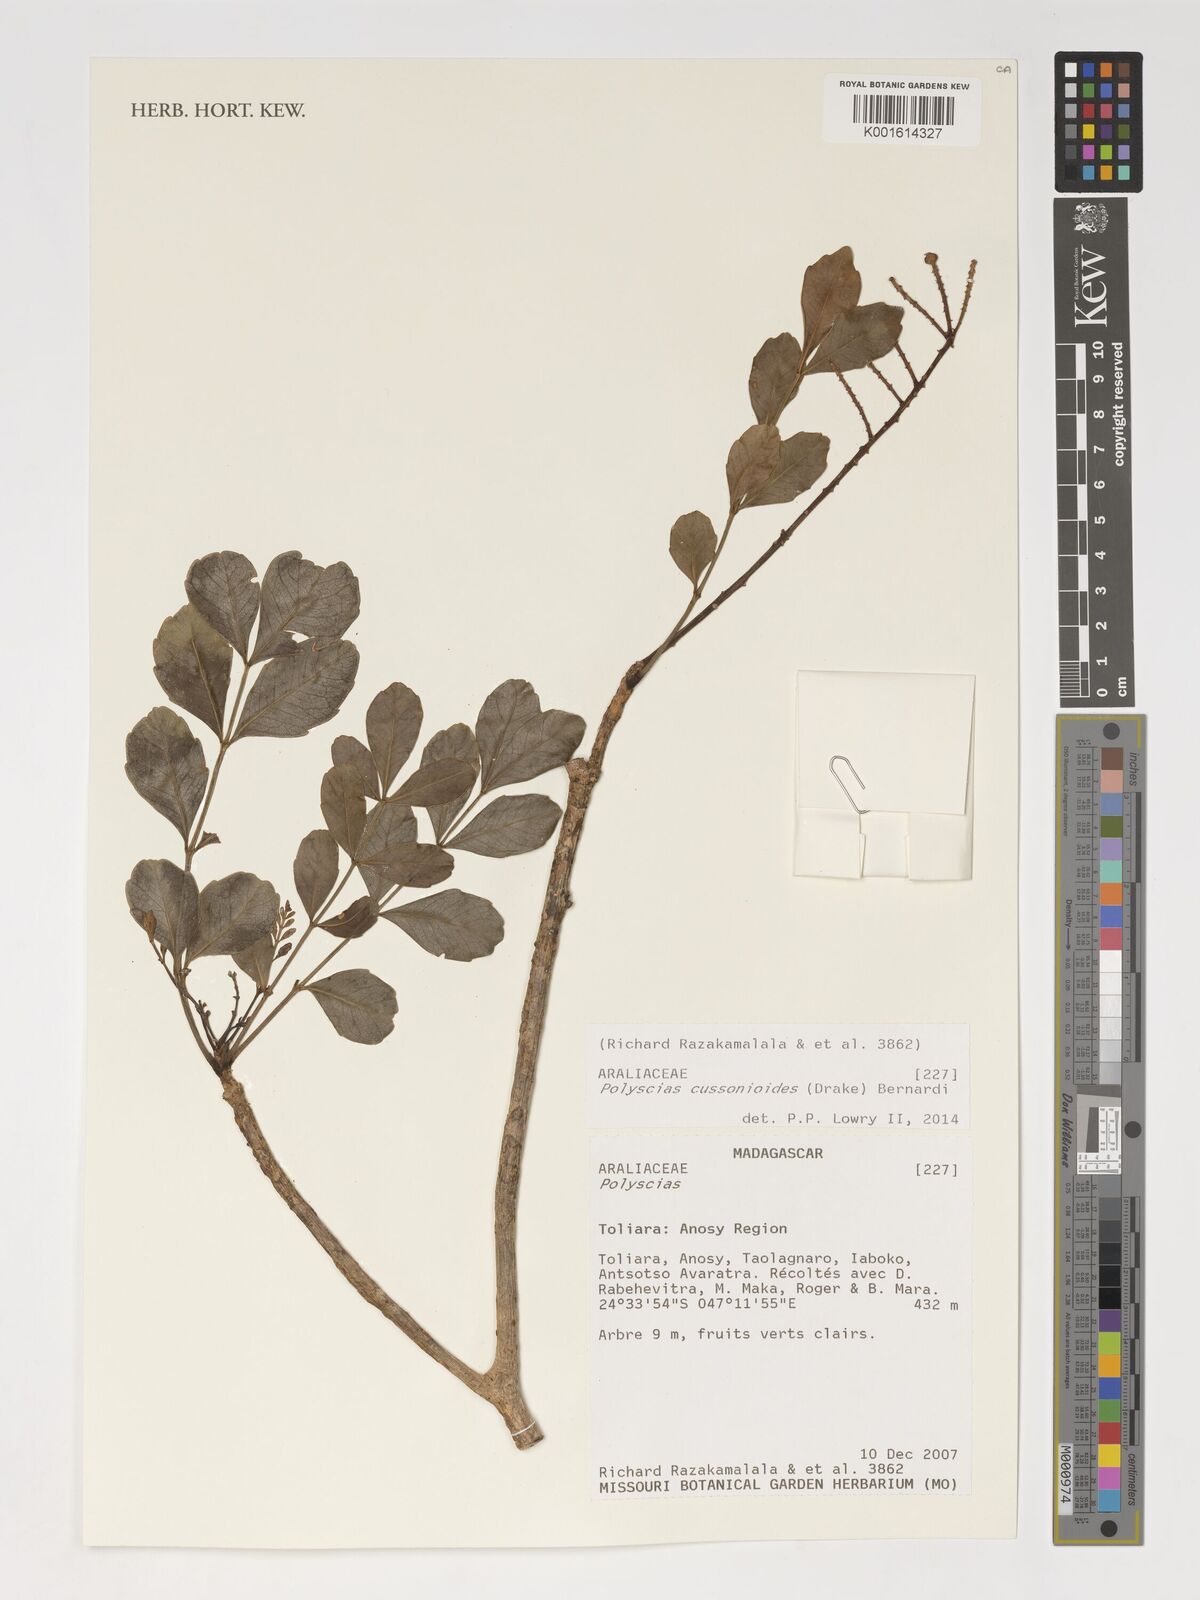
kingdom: Plantae
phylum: Tracheophyta
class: Magnoliopsida
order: Apiales
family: Araliaceae
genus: Polyscias
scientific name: Polyscias cussonioides
